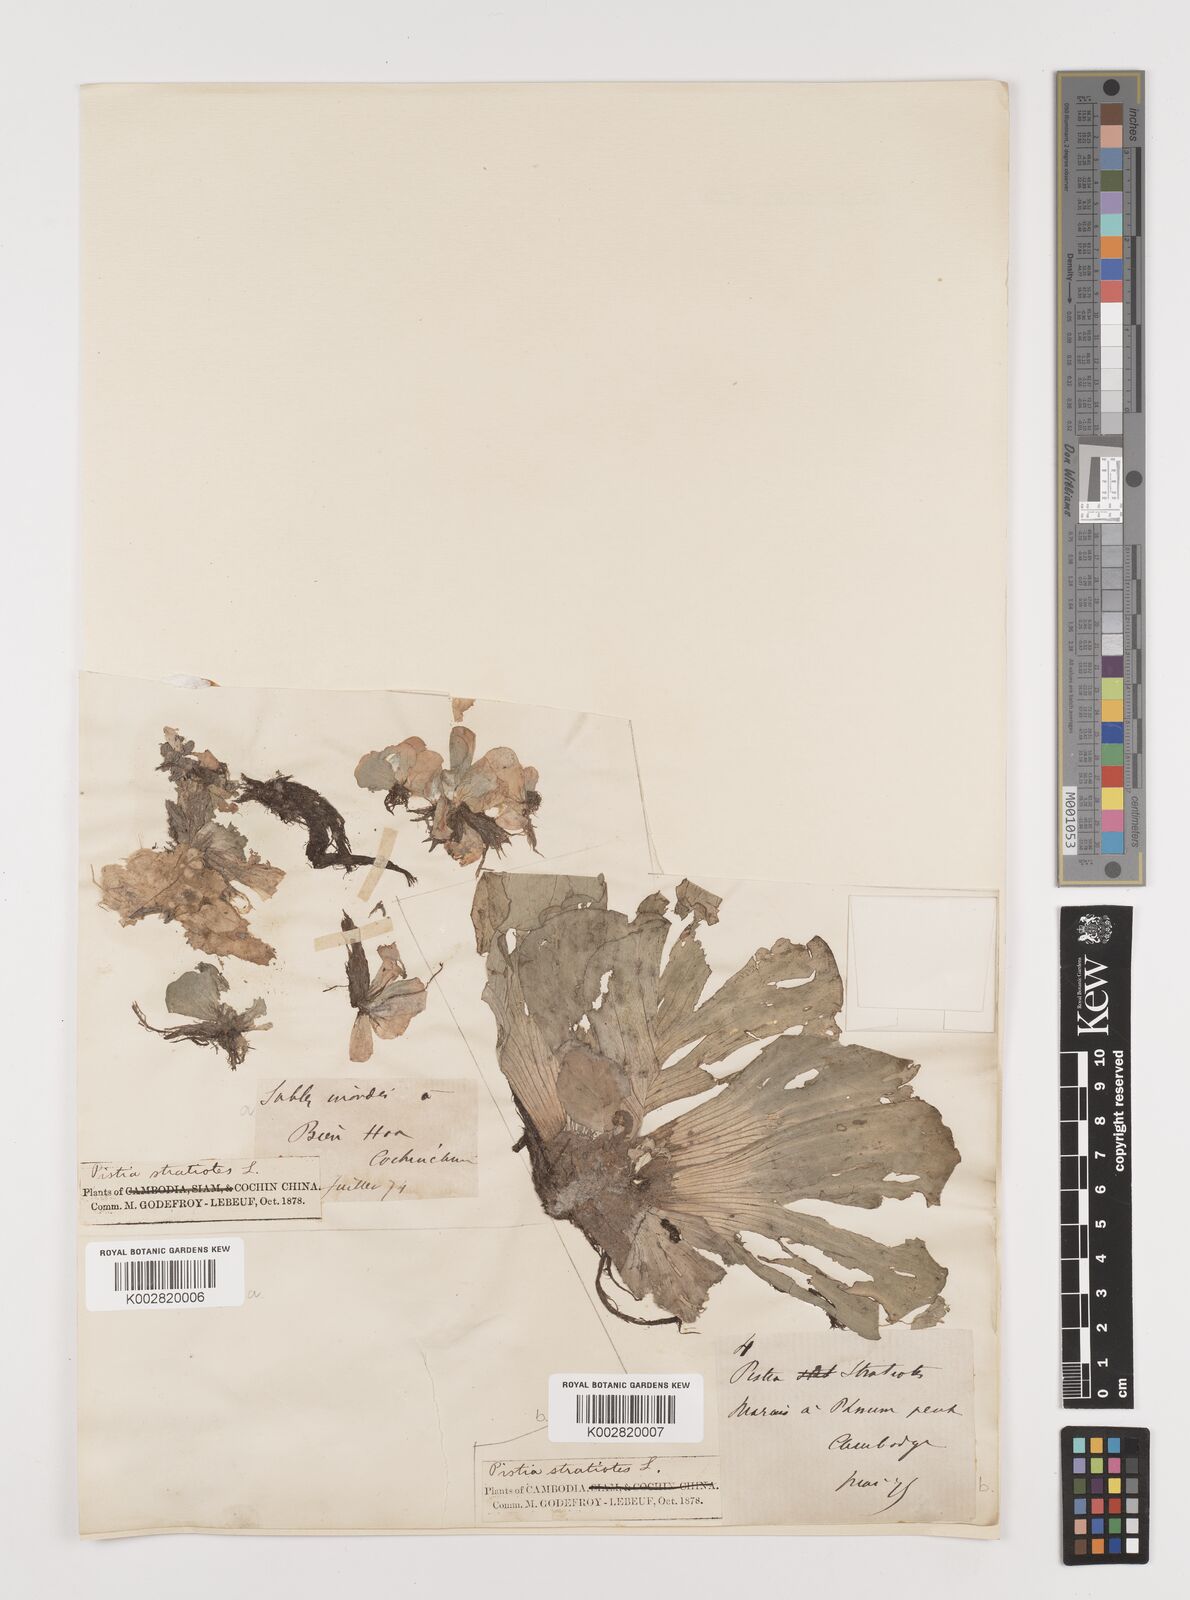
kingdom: Plantae
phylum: Tracheophyta
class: Liliopsida
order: Alismatales
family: Araceae
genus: Pistia
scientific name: Pistia stratiotes
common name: Water lettuce
